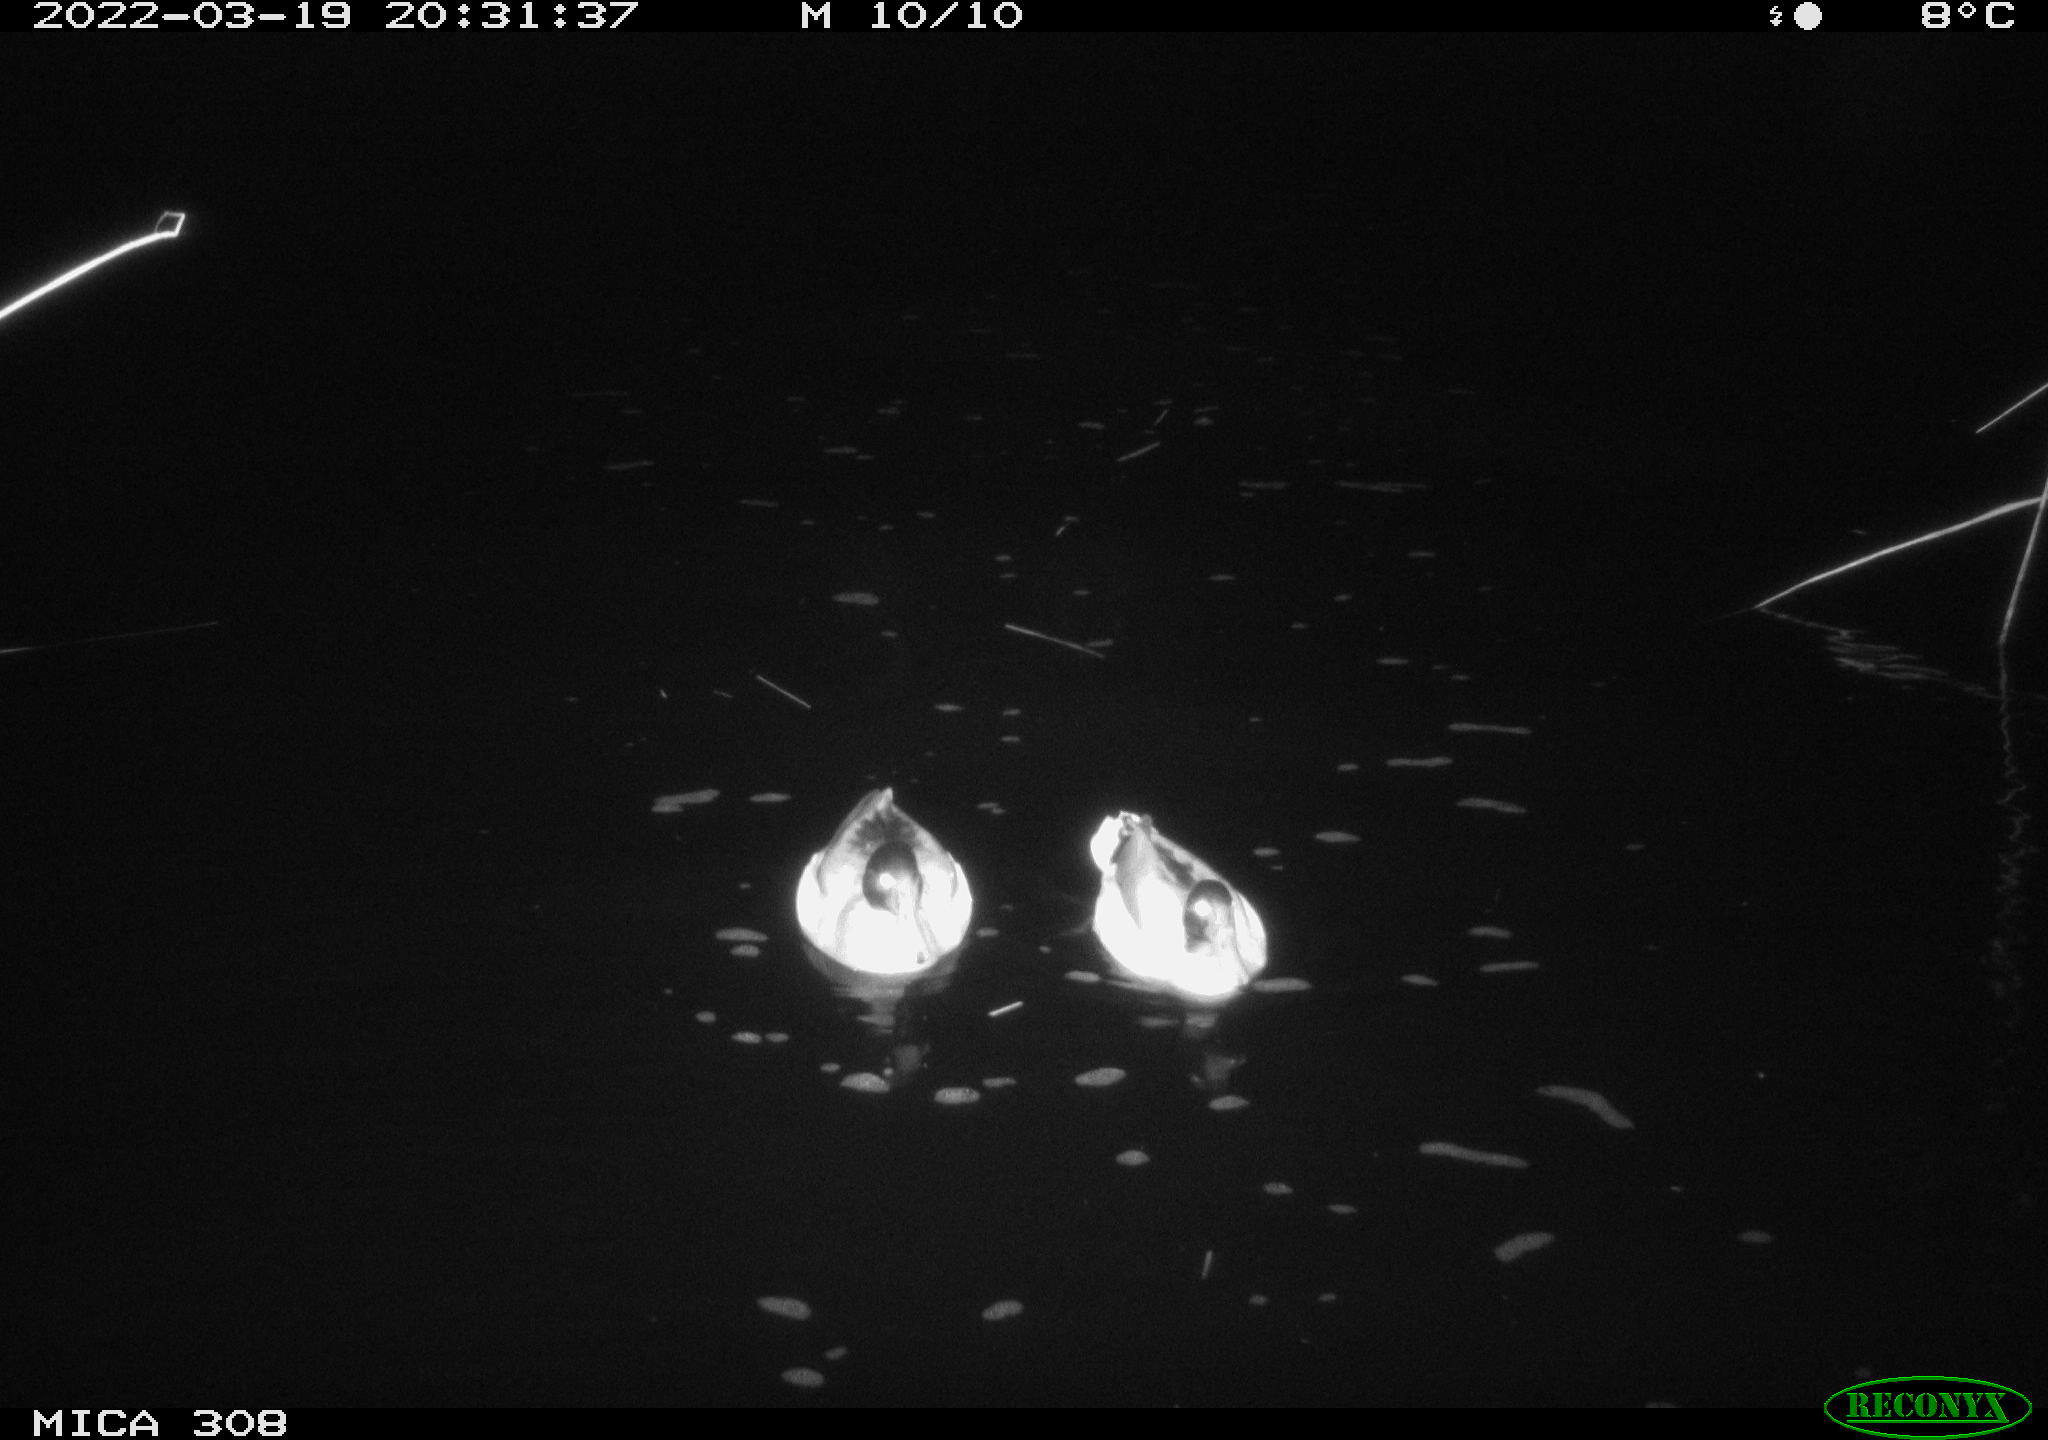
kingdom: Animalia
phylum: Chordata
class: Aves
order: Anseriformes
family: Anatidae
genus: Anas
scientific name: Anas platyrhynchos
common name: Mallard
